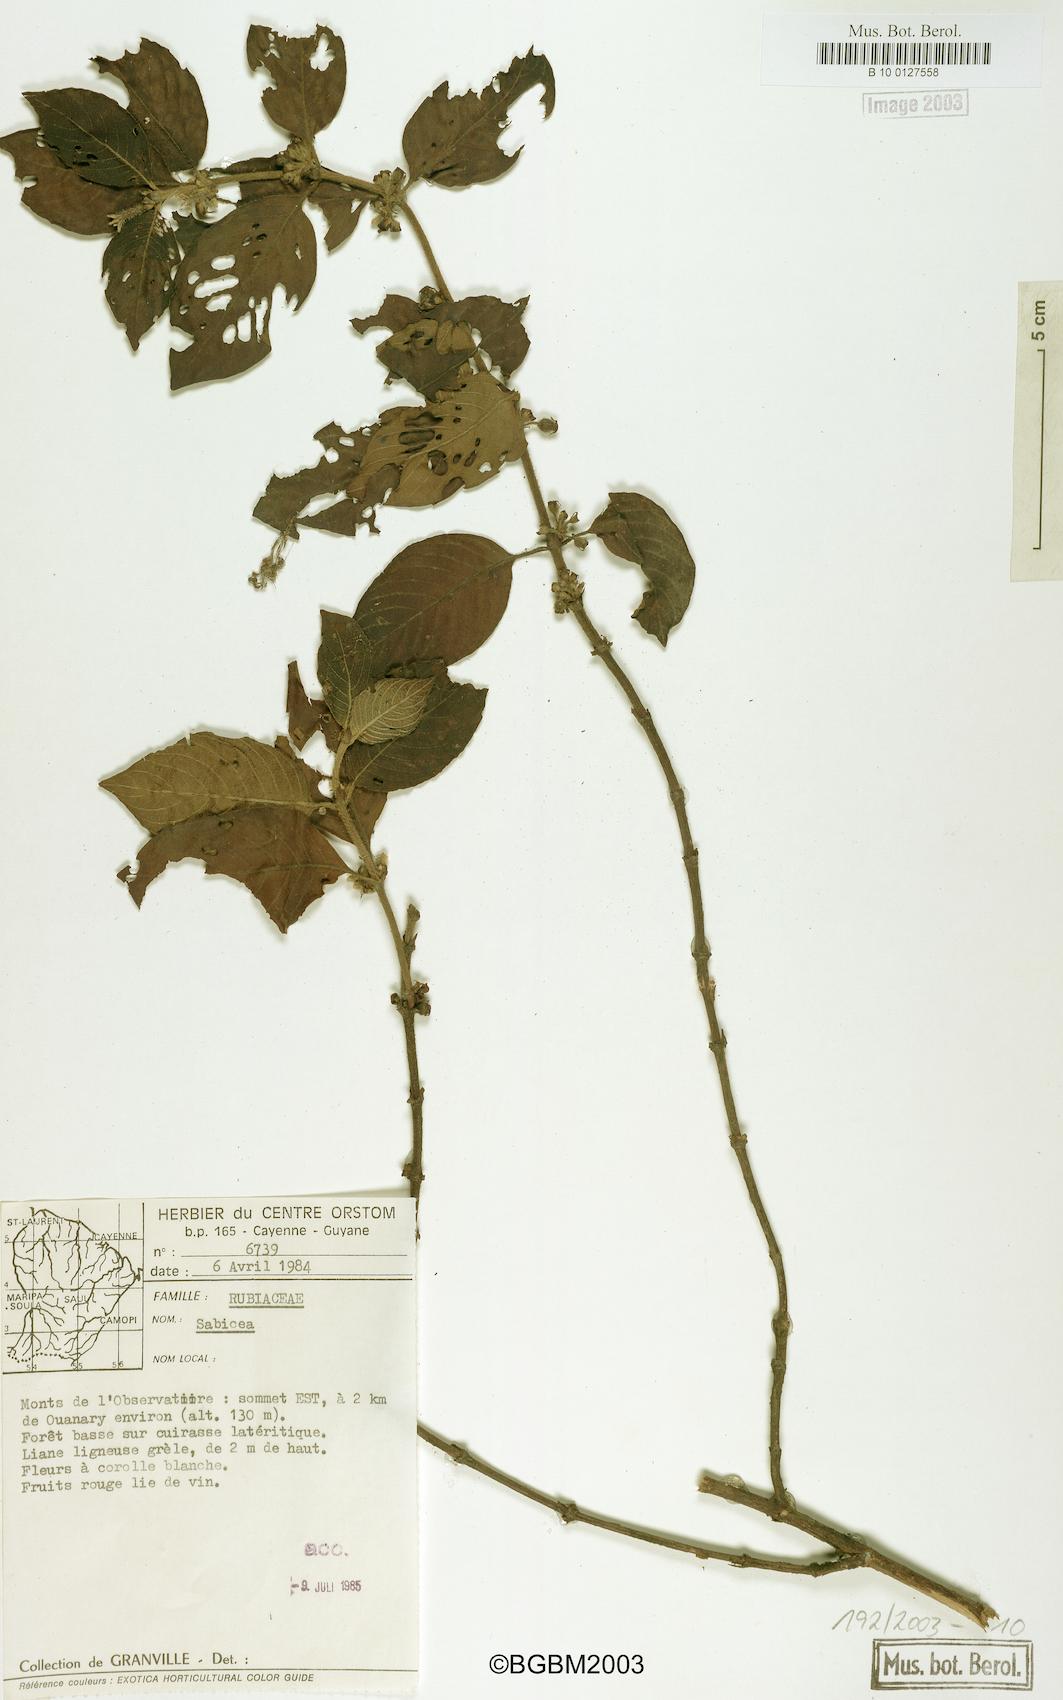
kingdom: Plantae
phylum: Tracheophyta
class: Magnoliopsida
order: Gentianales
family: Rubiaceae
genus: Sabicea
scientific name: Sabicea
